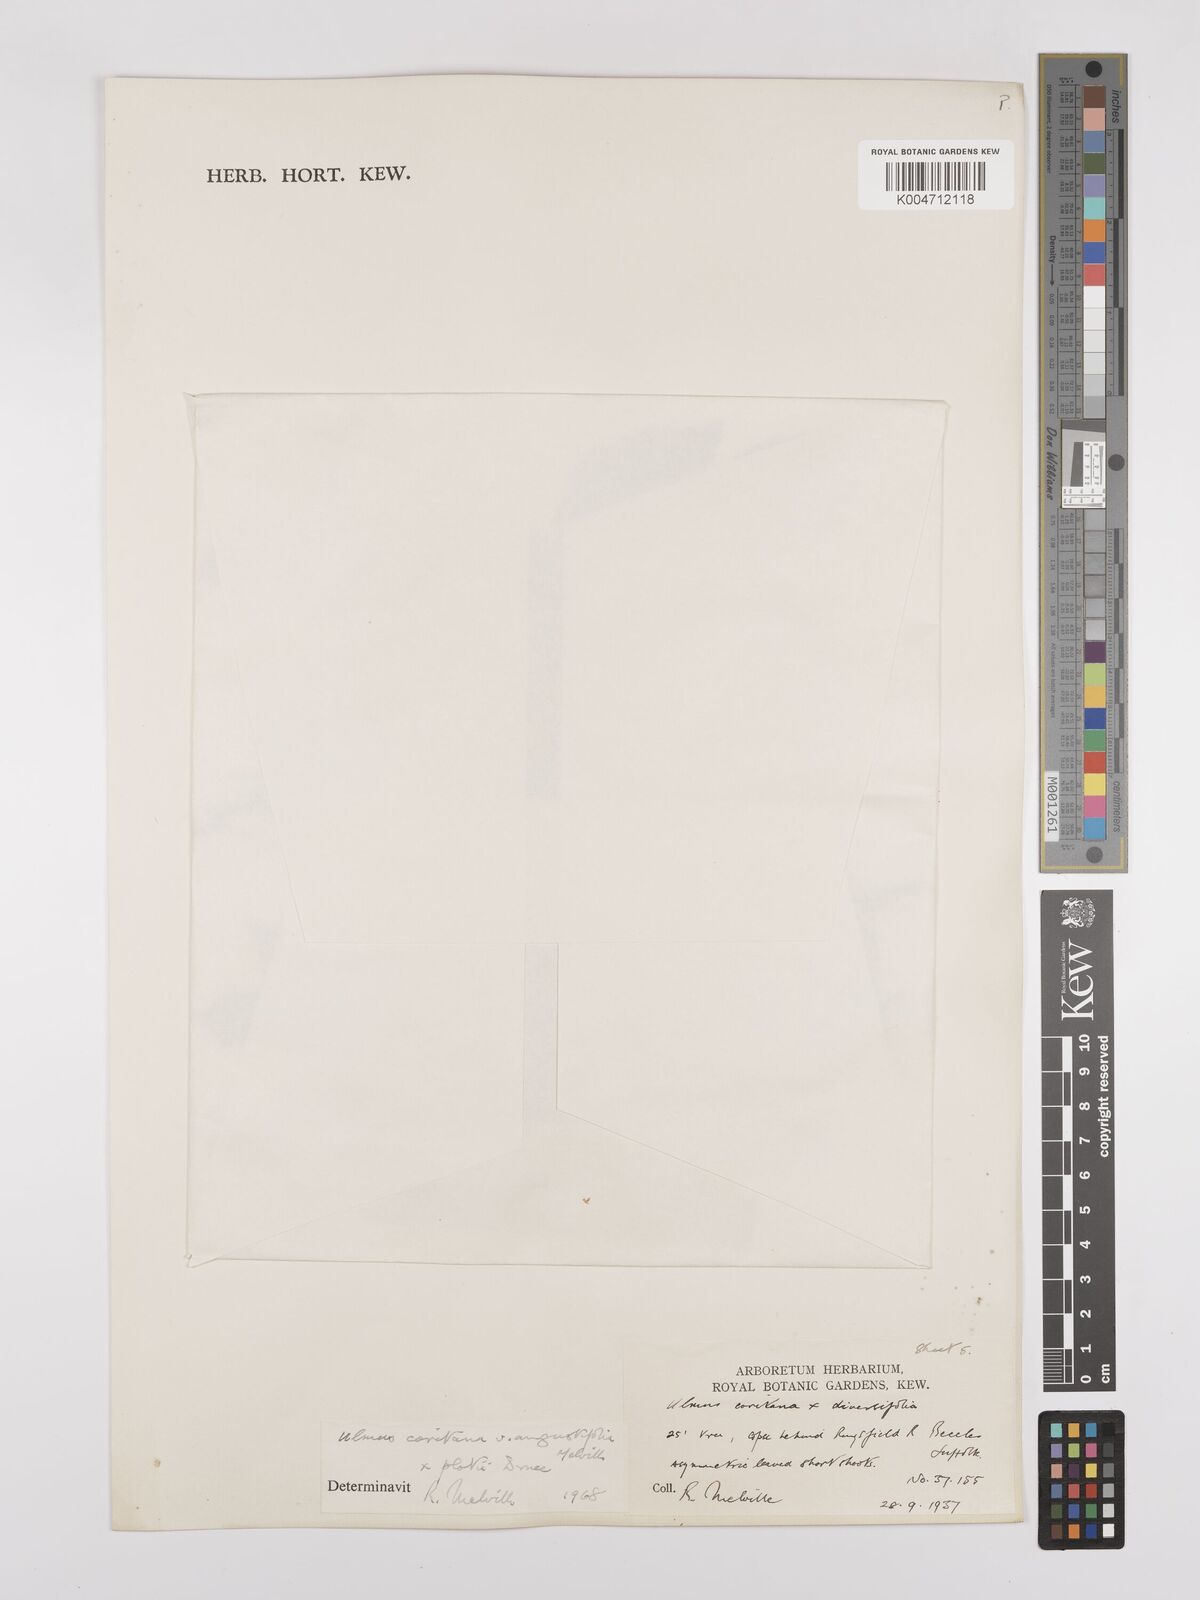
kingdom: Plantae
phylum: Tracheophyta
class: Magnoliopsida
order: Rosales
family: Ulmaceae
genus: Ulmus
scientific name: Ulmus minor
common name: Small-leaved elm
